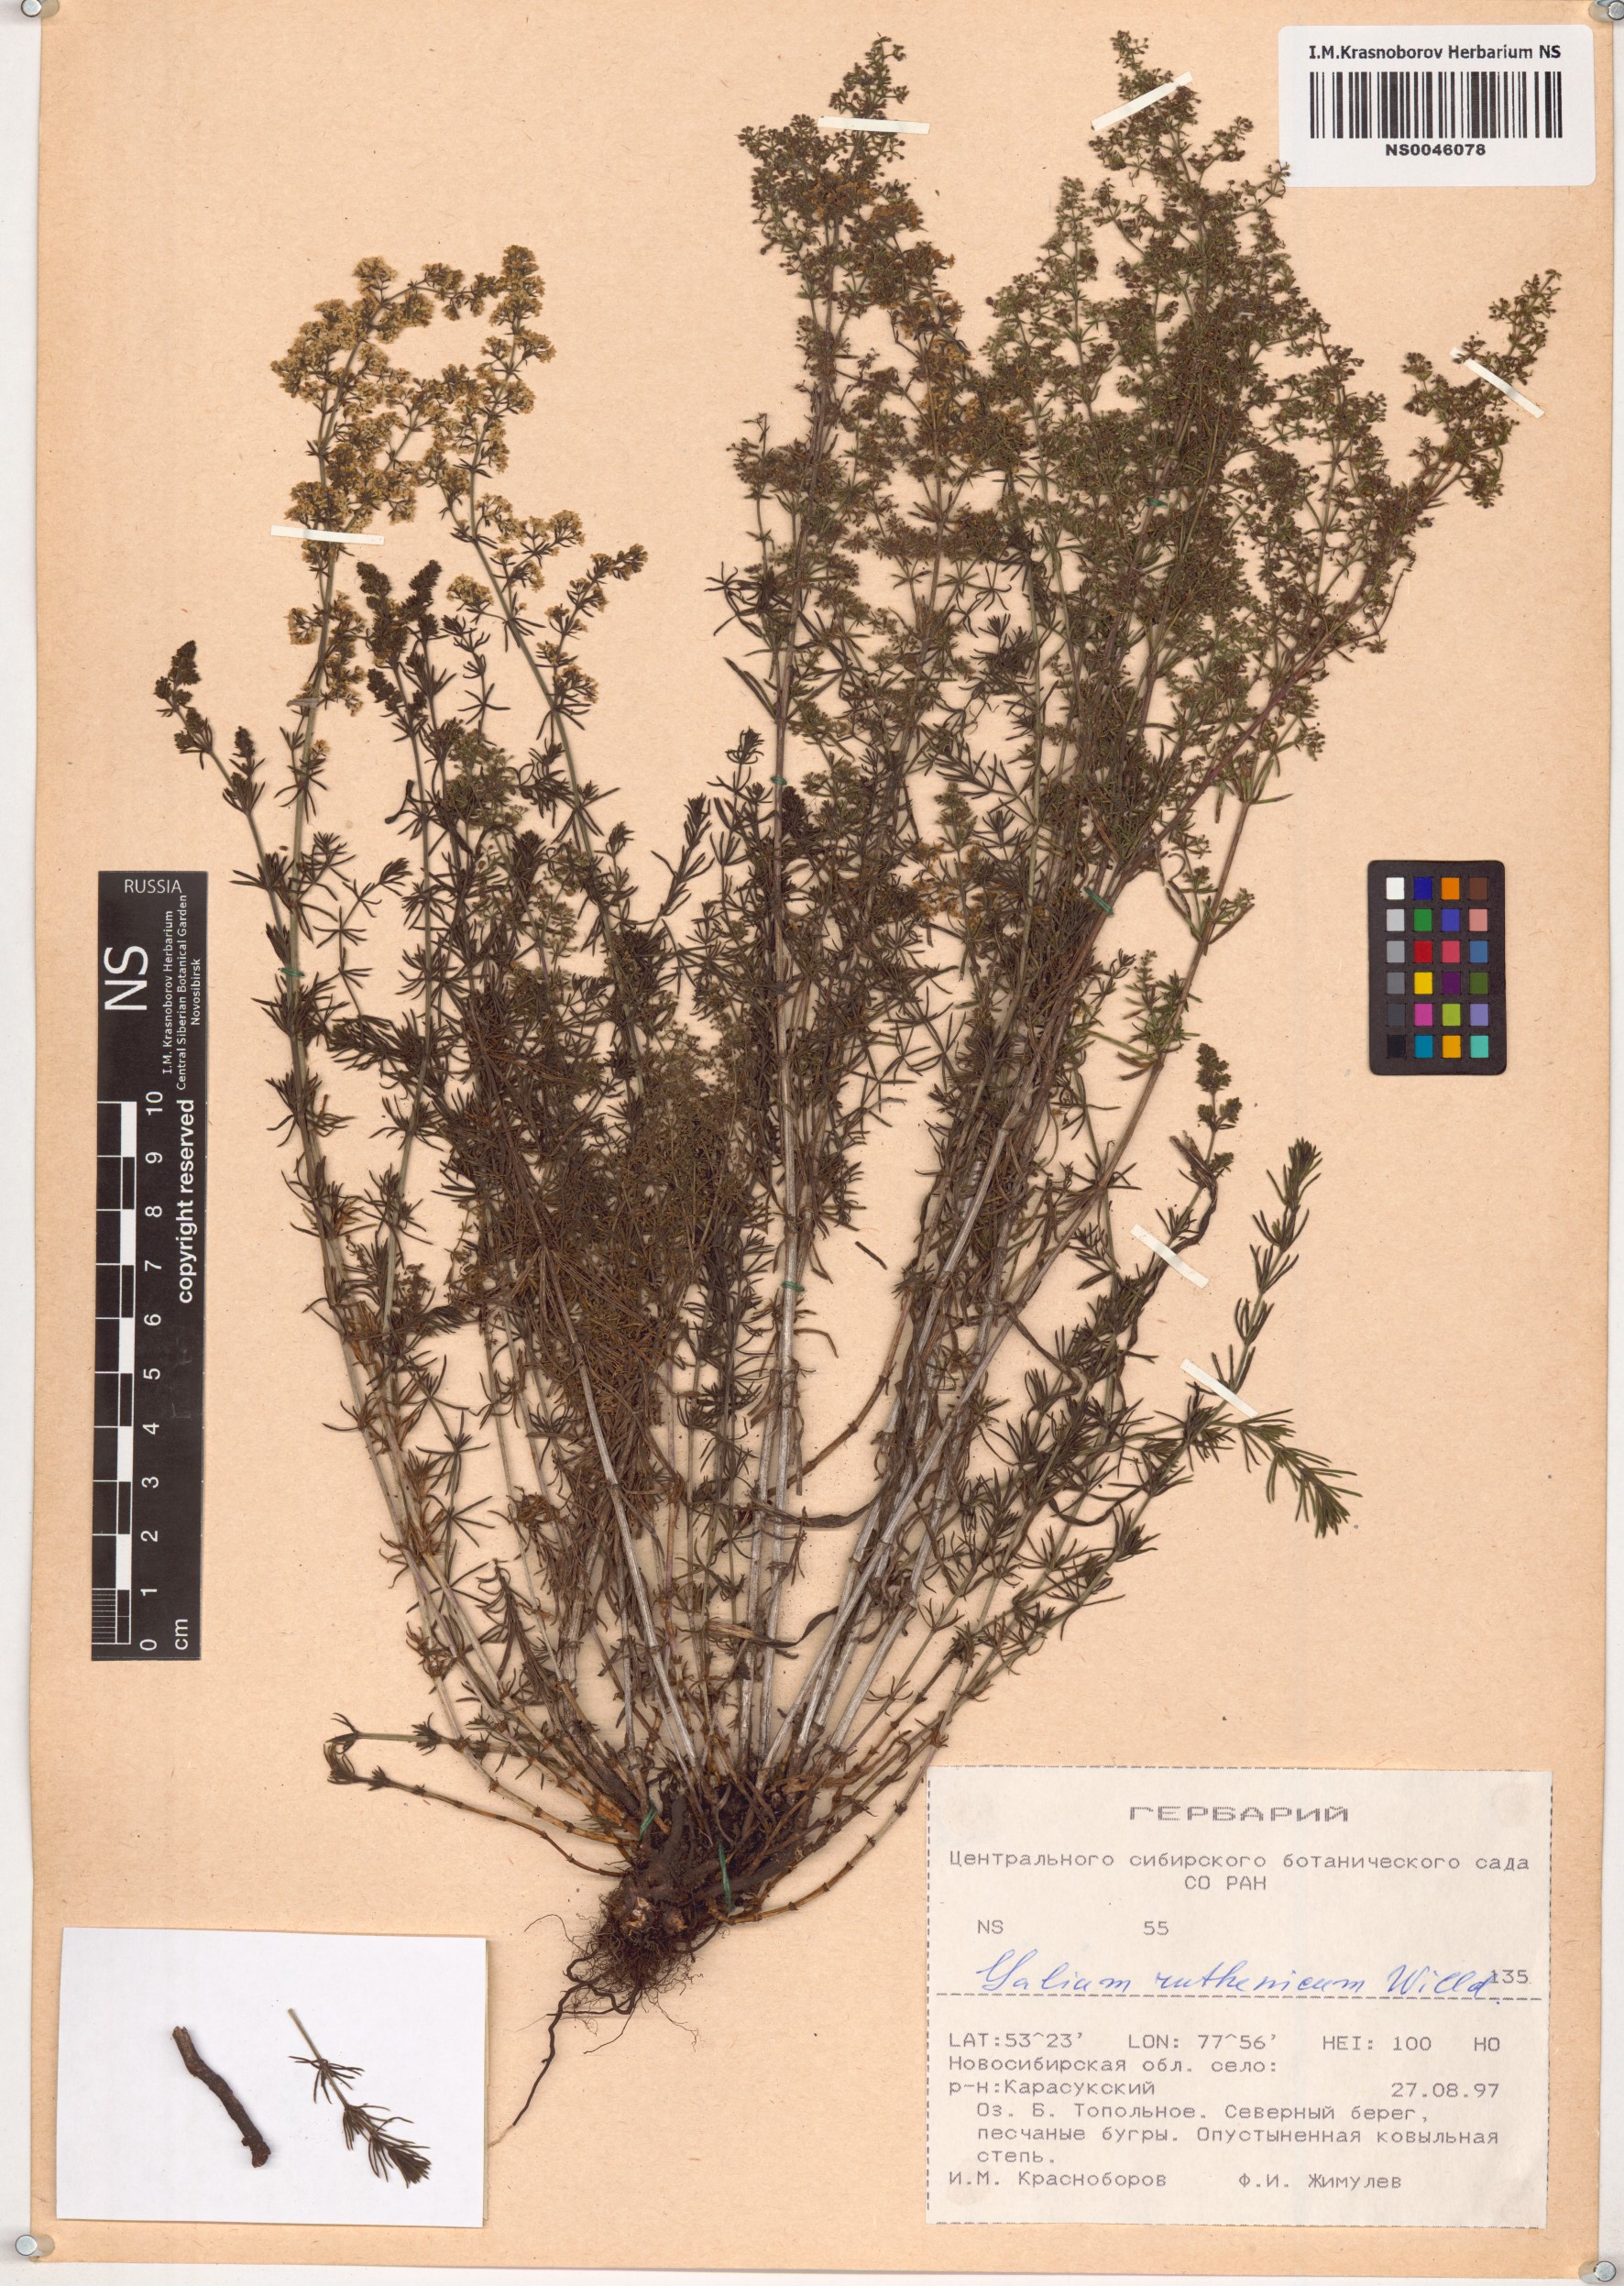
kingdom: Plantae
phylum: Tracheophyta
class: Magnoliopsida
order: Gentianales
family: Rubiaceae
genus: Galium
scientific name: Galium verum
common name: Lady's bedstraw
